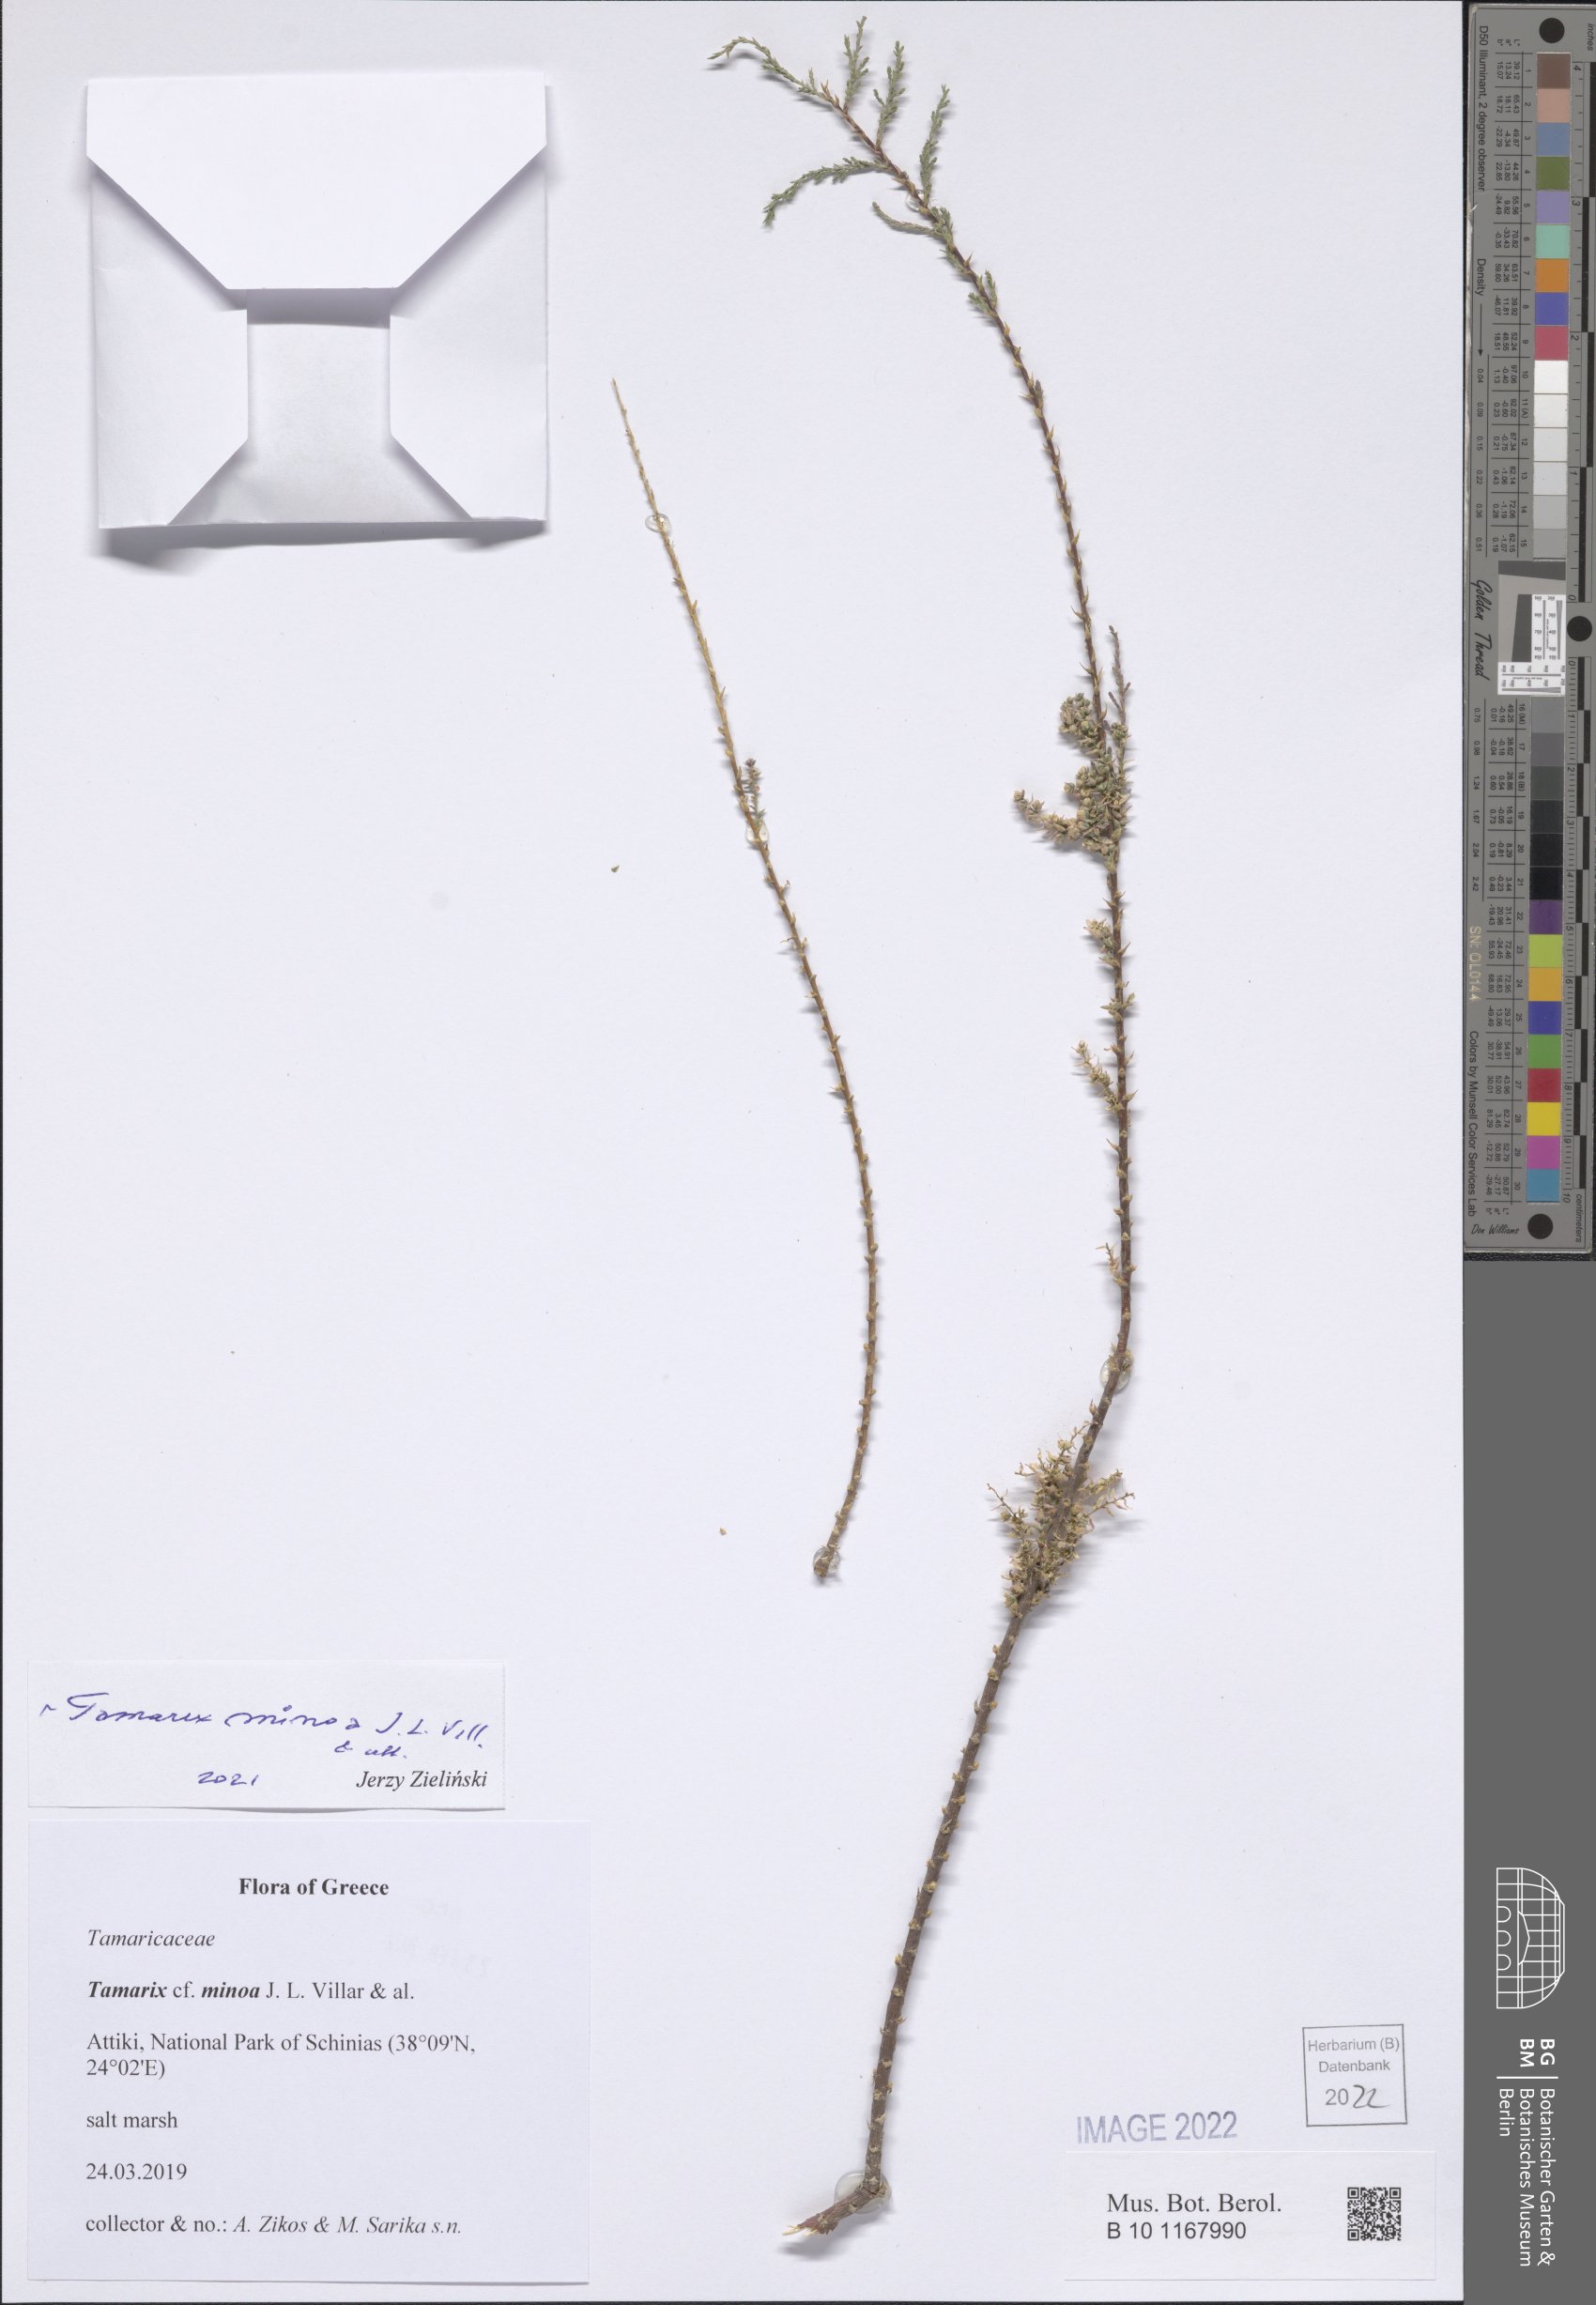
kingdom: Plantae
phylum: Tracheophyta
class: Magnoliopsida
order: Caryophyllales
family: Tamaricaceae
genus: Tamarix
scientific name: Tamarix minoa
